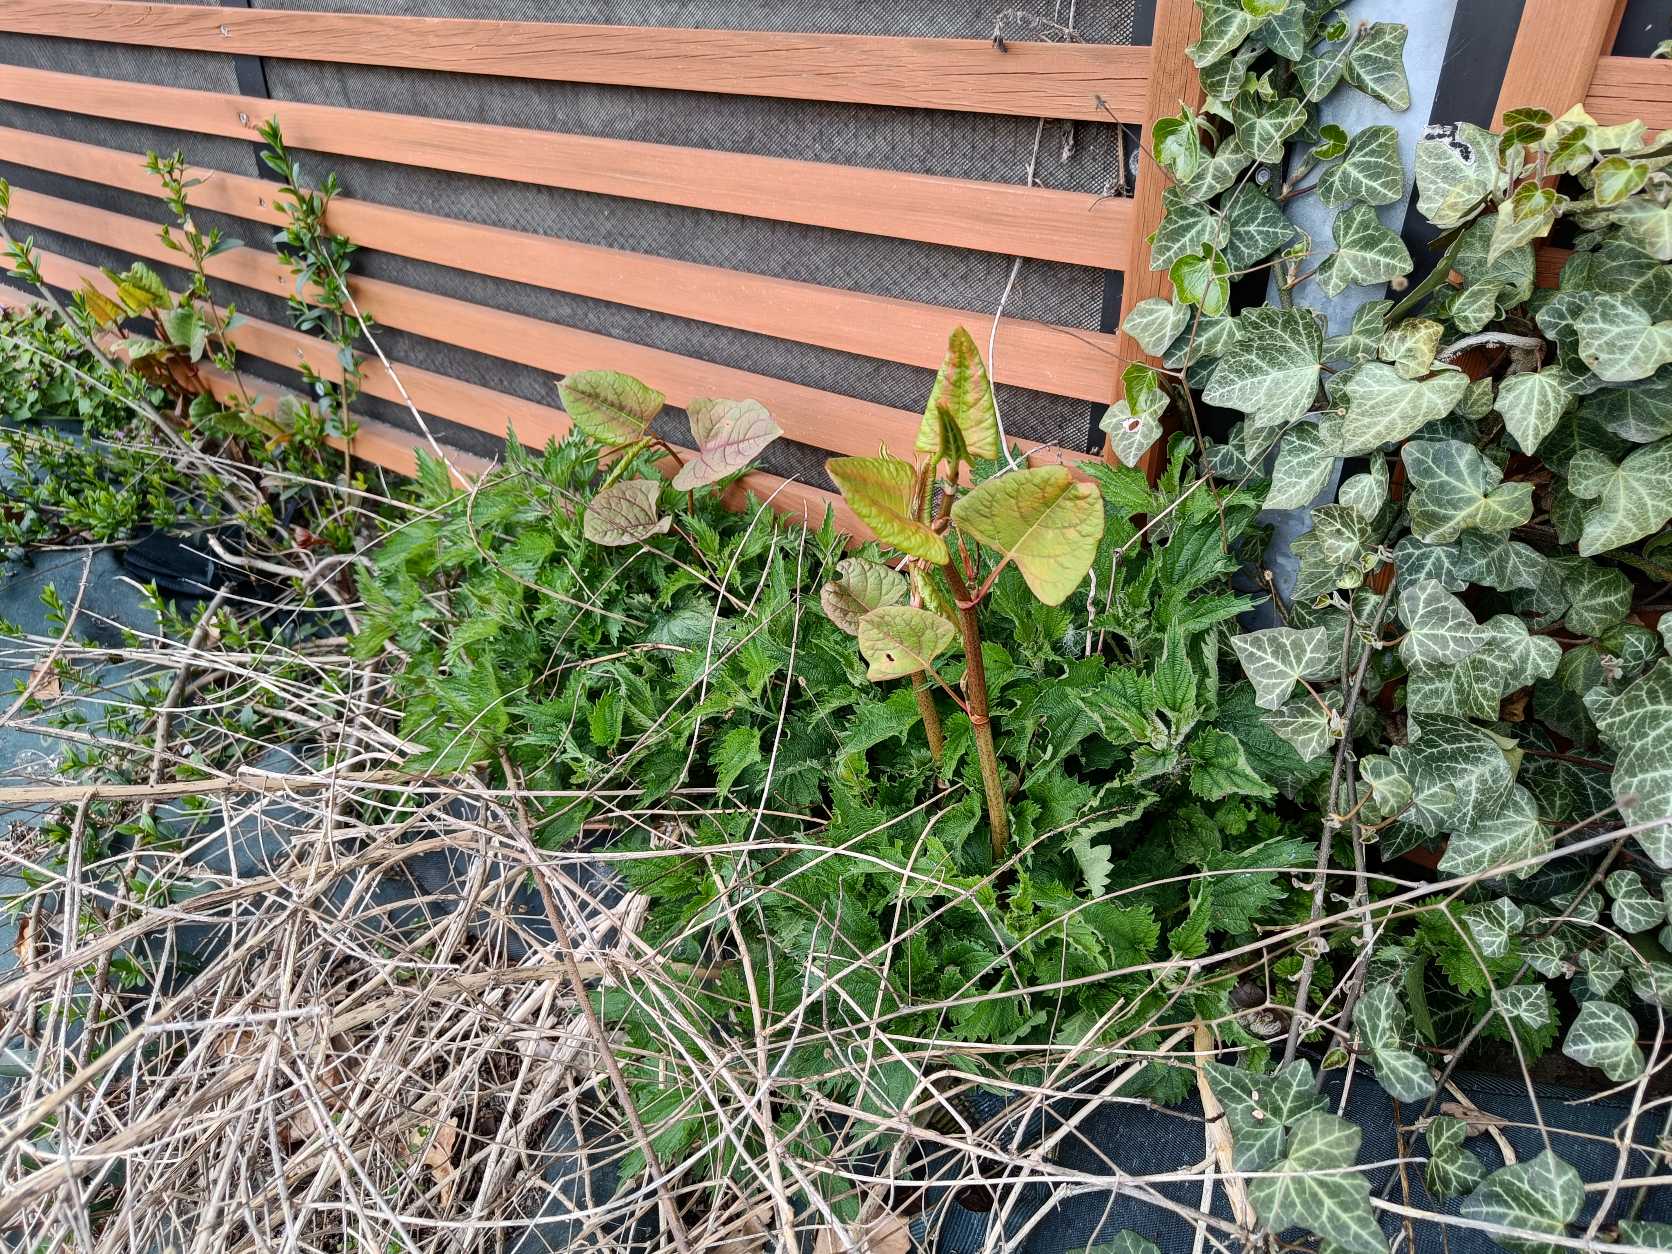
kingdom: Plantae
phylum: Tracheophyta
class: Magnoliopsida
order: Caryophyllales
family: Polygonaceae
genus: Reynoutria
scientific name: Reynoutria bohemica
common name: Hybrid-pileurt
